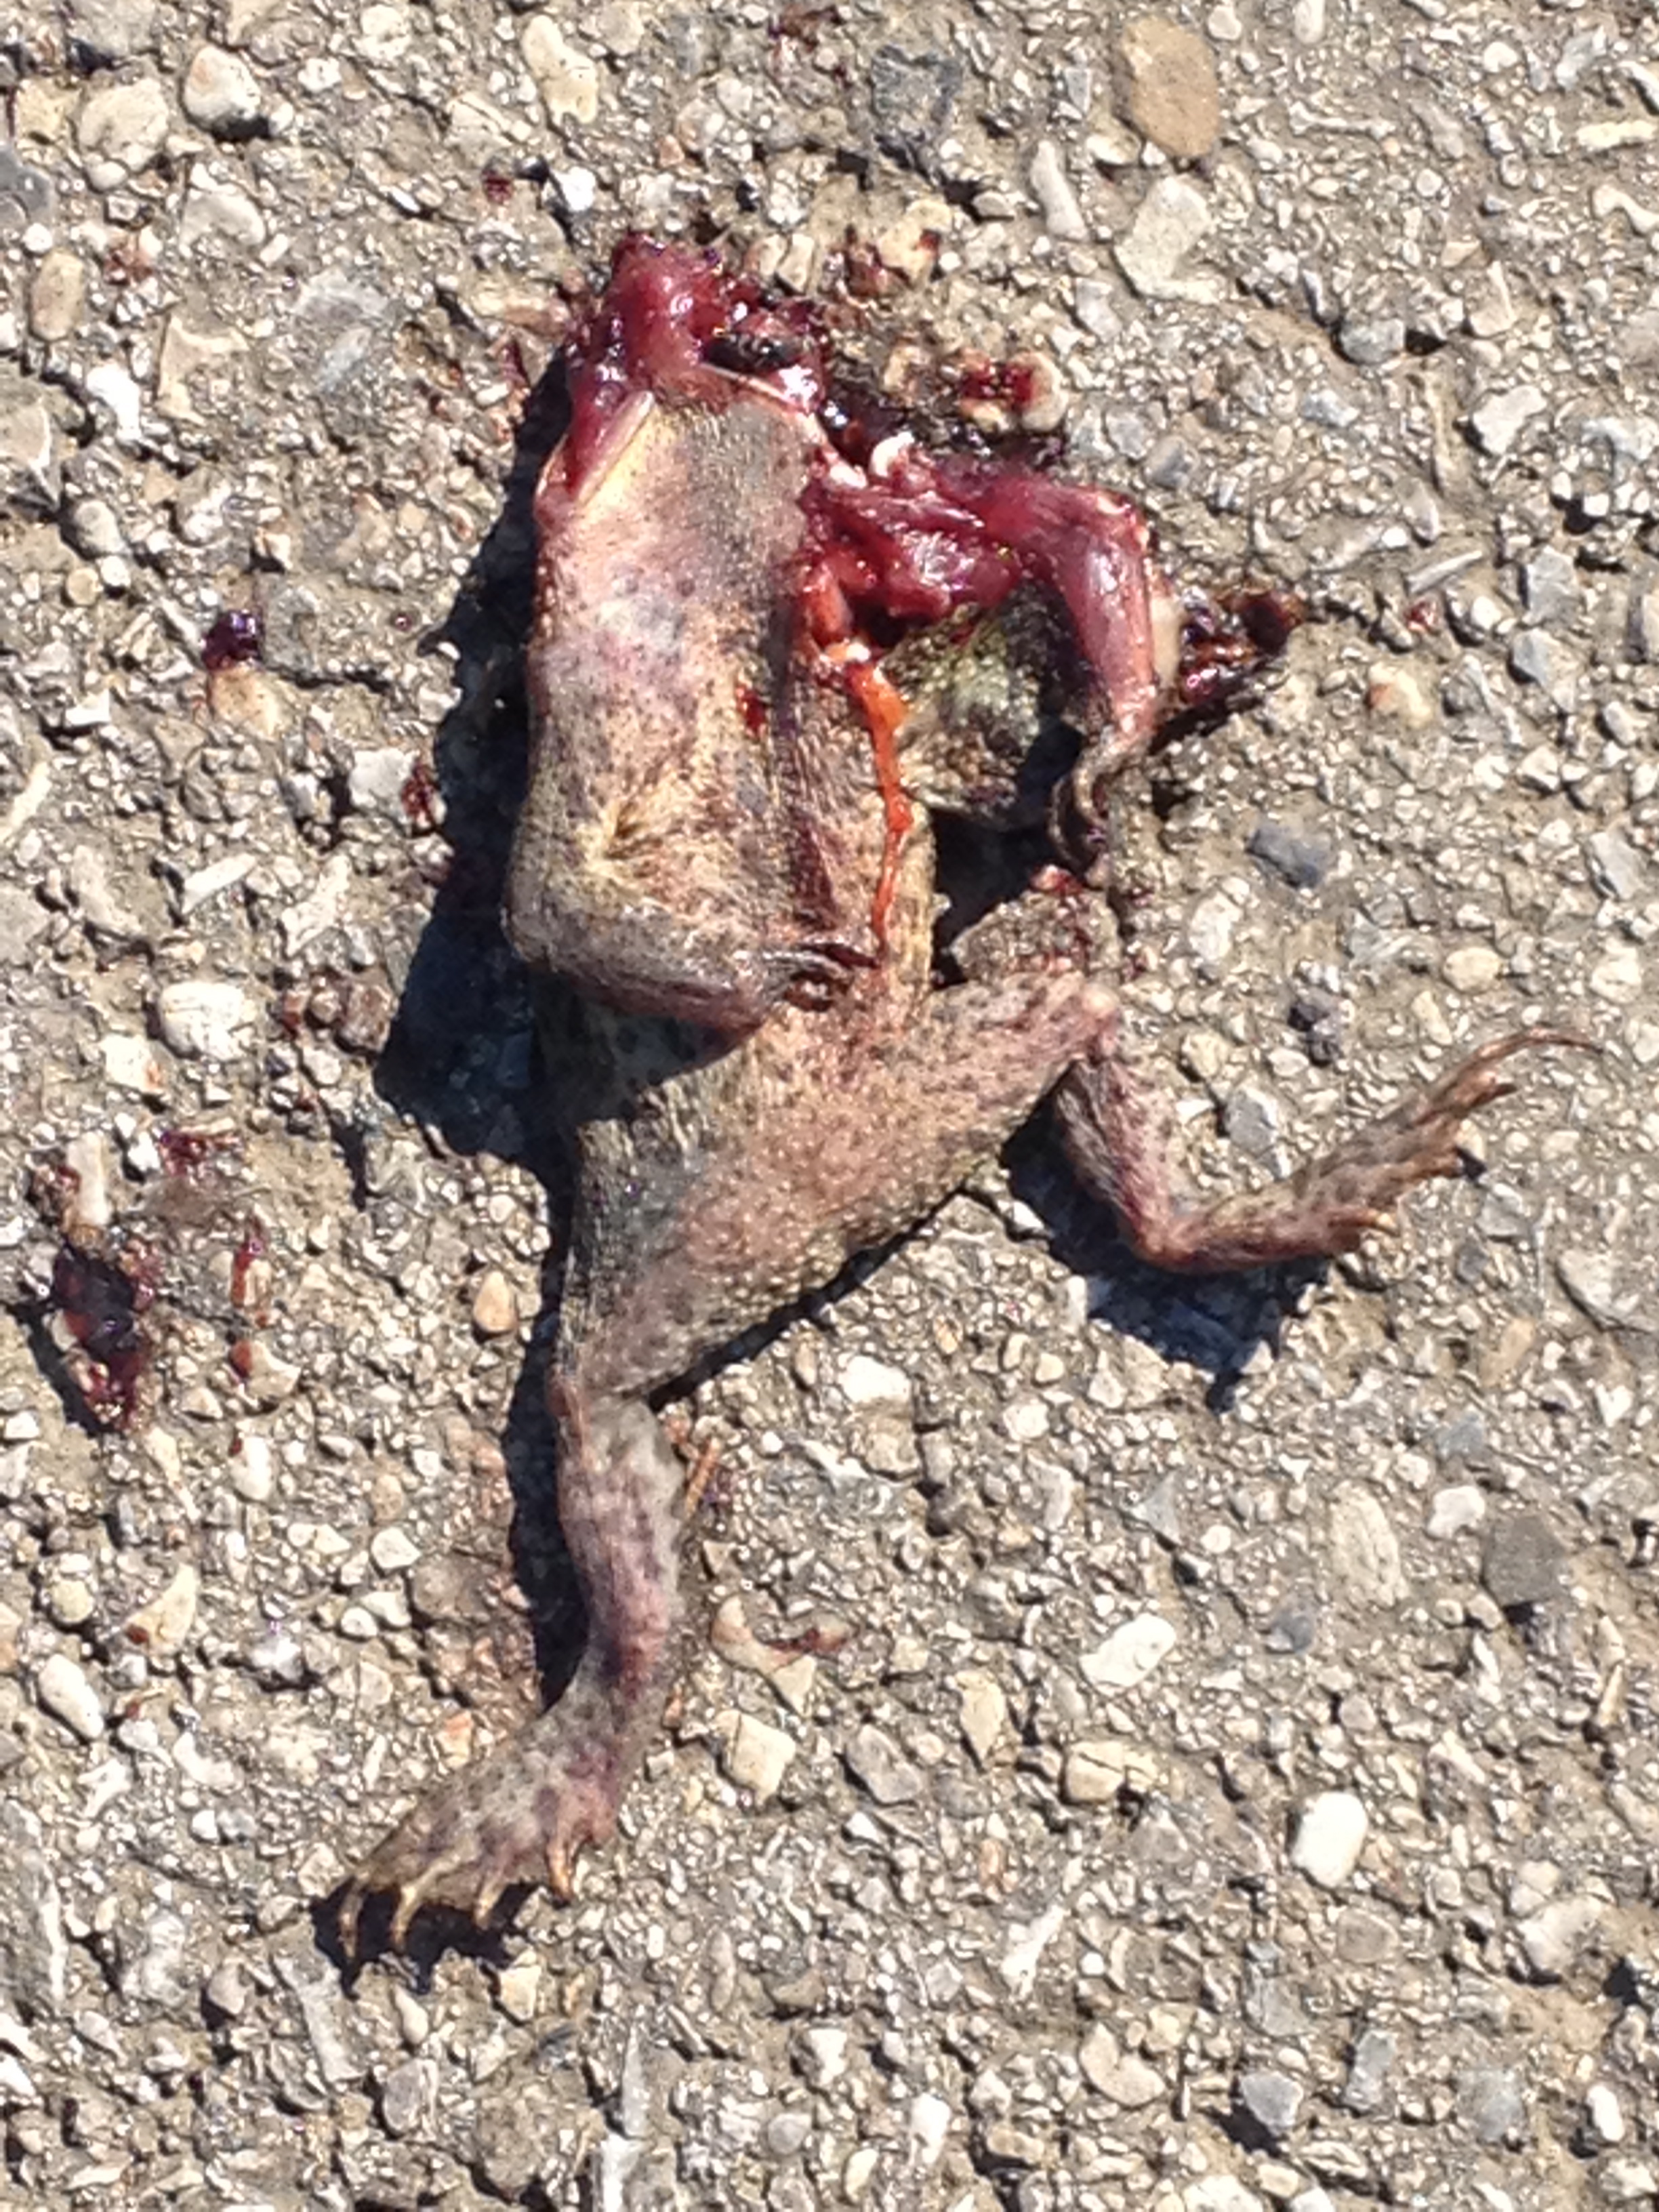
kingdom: Animalia
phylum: Chordata
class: Amphibia
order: Anura
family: Bufonidae
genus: Bufo
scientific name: Bufo bufo
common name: Common toad
